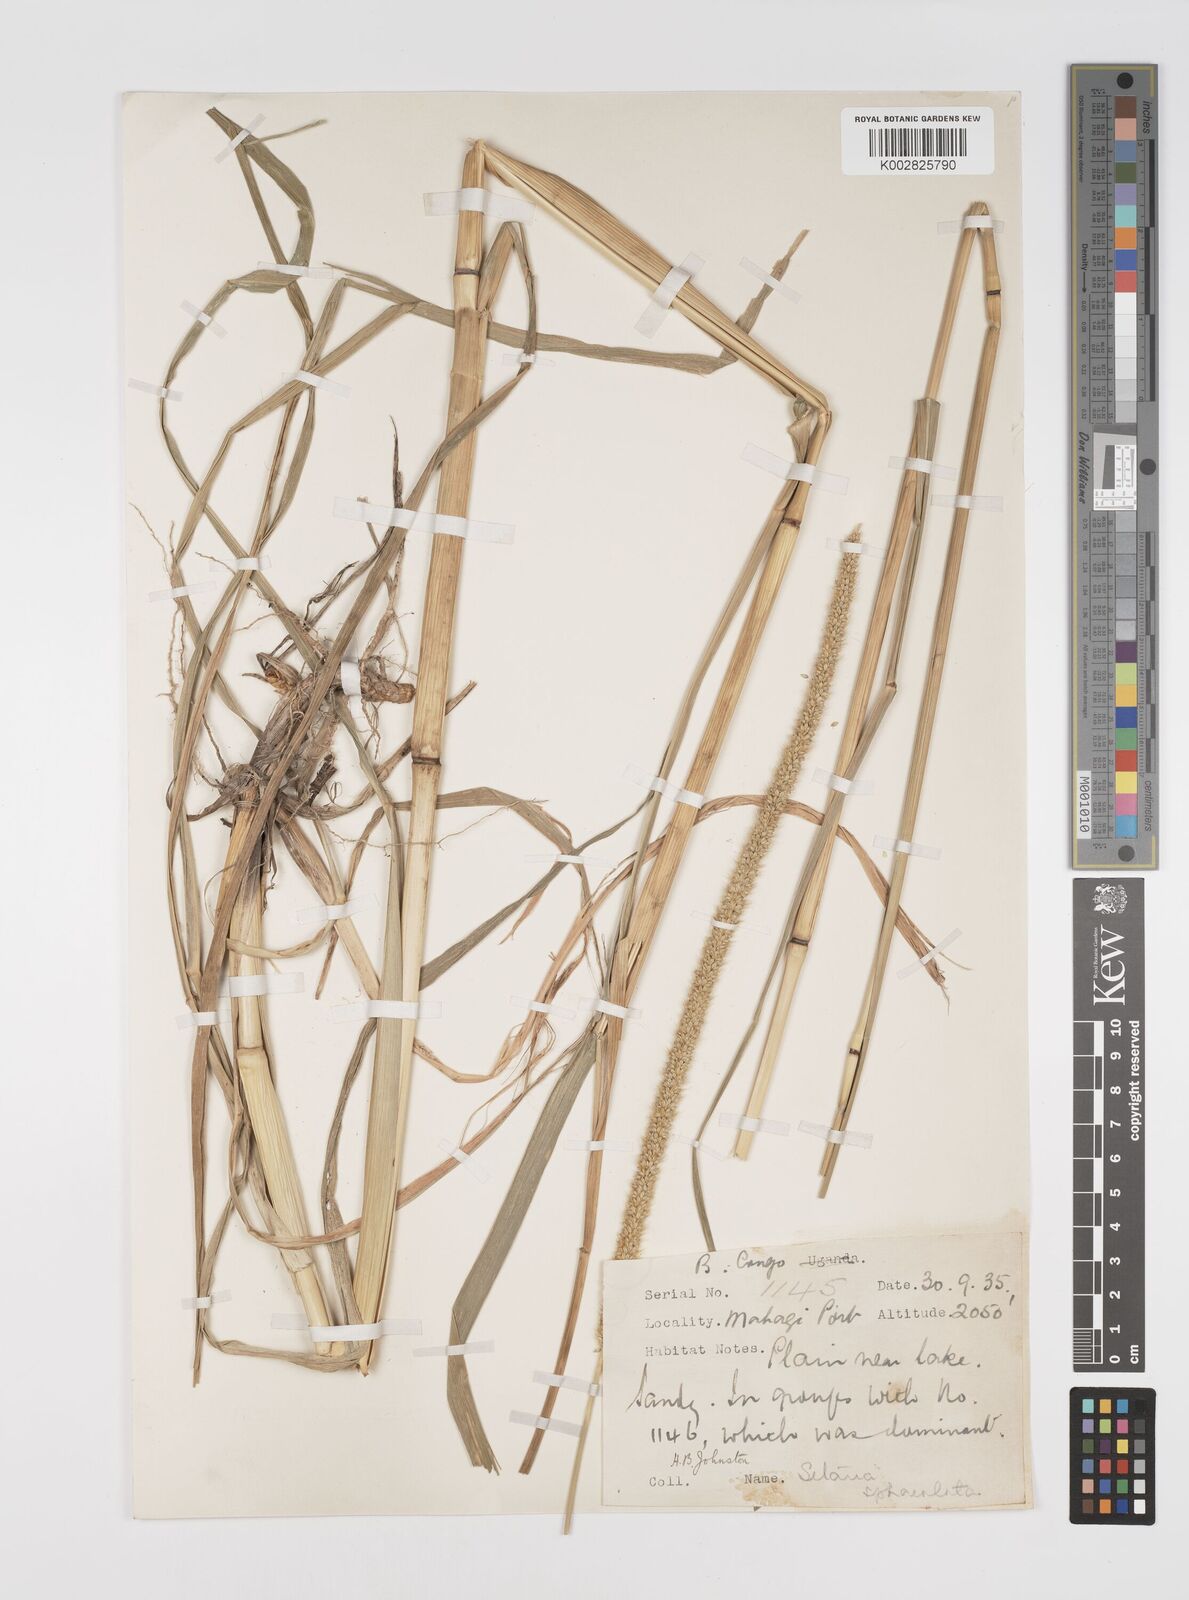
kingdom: Plantae
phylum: Tracheophyta
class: Liliopsida
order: Poales
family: Poaceae
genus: Setaria
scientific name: Setaria sphacelata
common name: African bristlegrass
